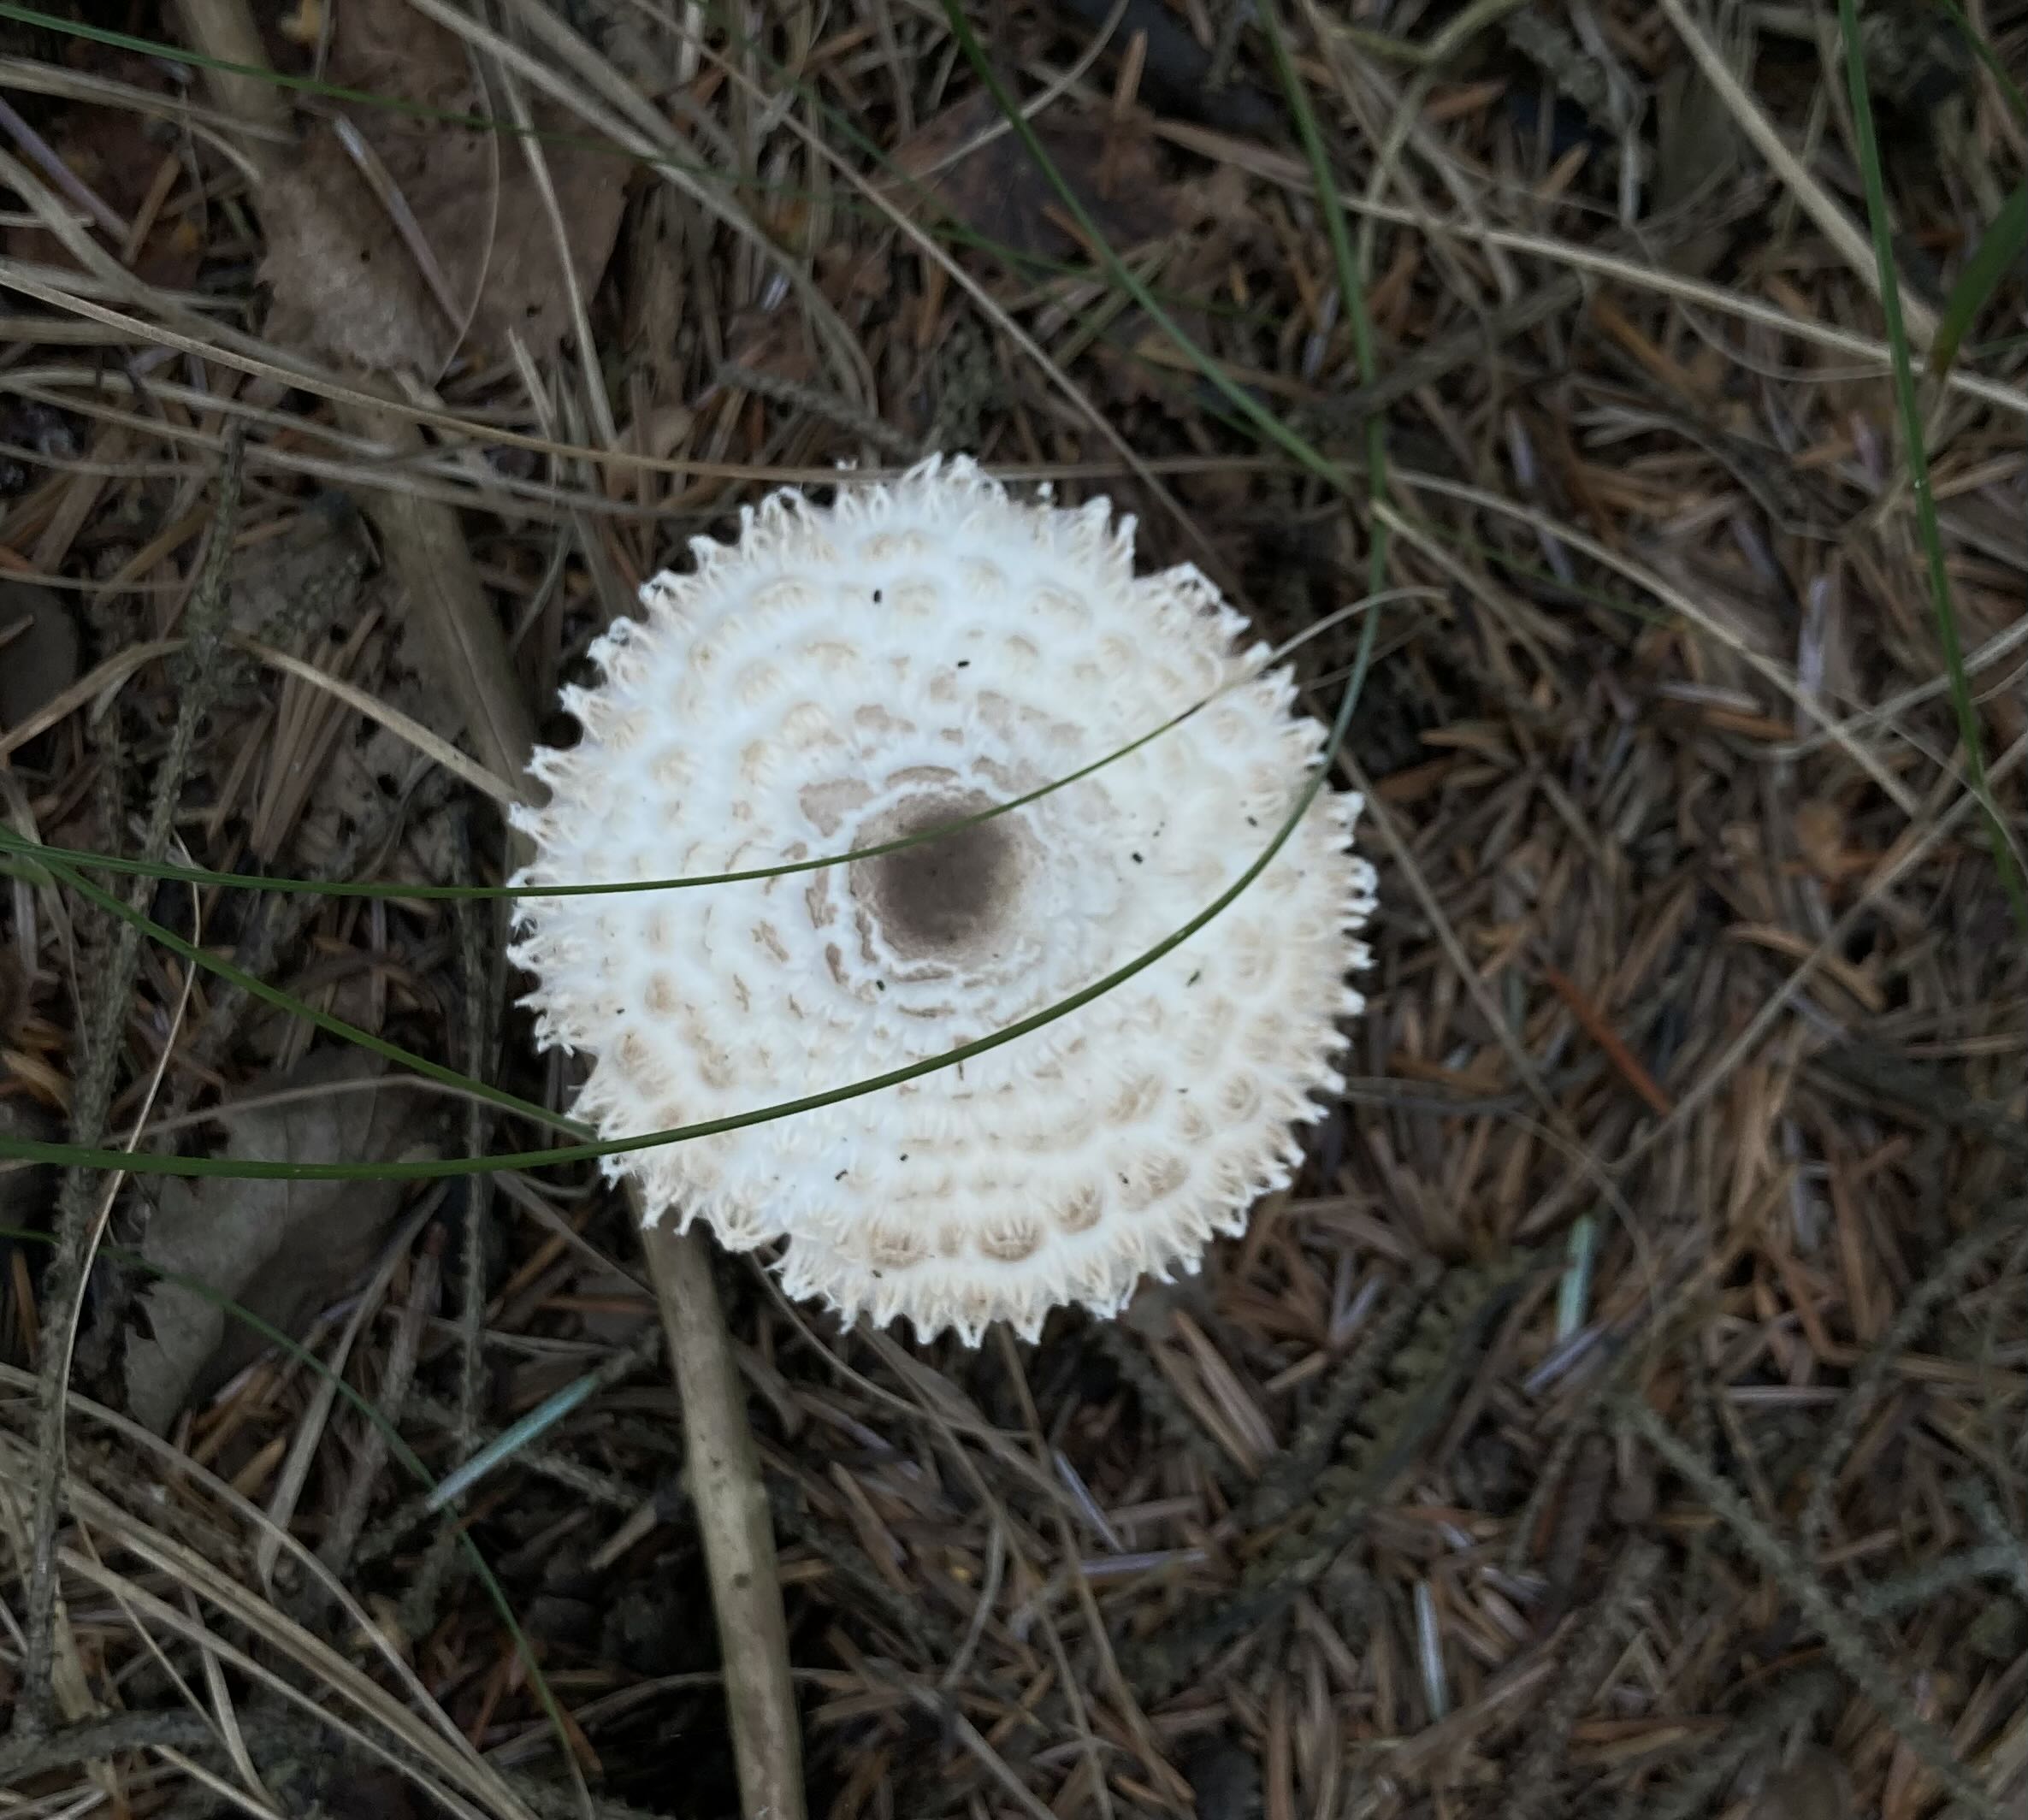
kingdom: Fungi
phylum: Basidiomycota
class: Agaricomycetes
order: Agaricales
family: Agaricaceae
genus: Leucoagaricus
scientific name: Leucoagaricus nympharum
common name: gran-silkehat
